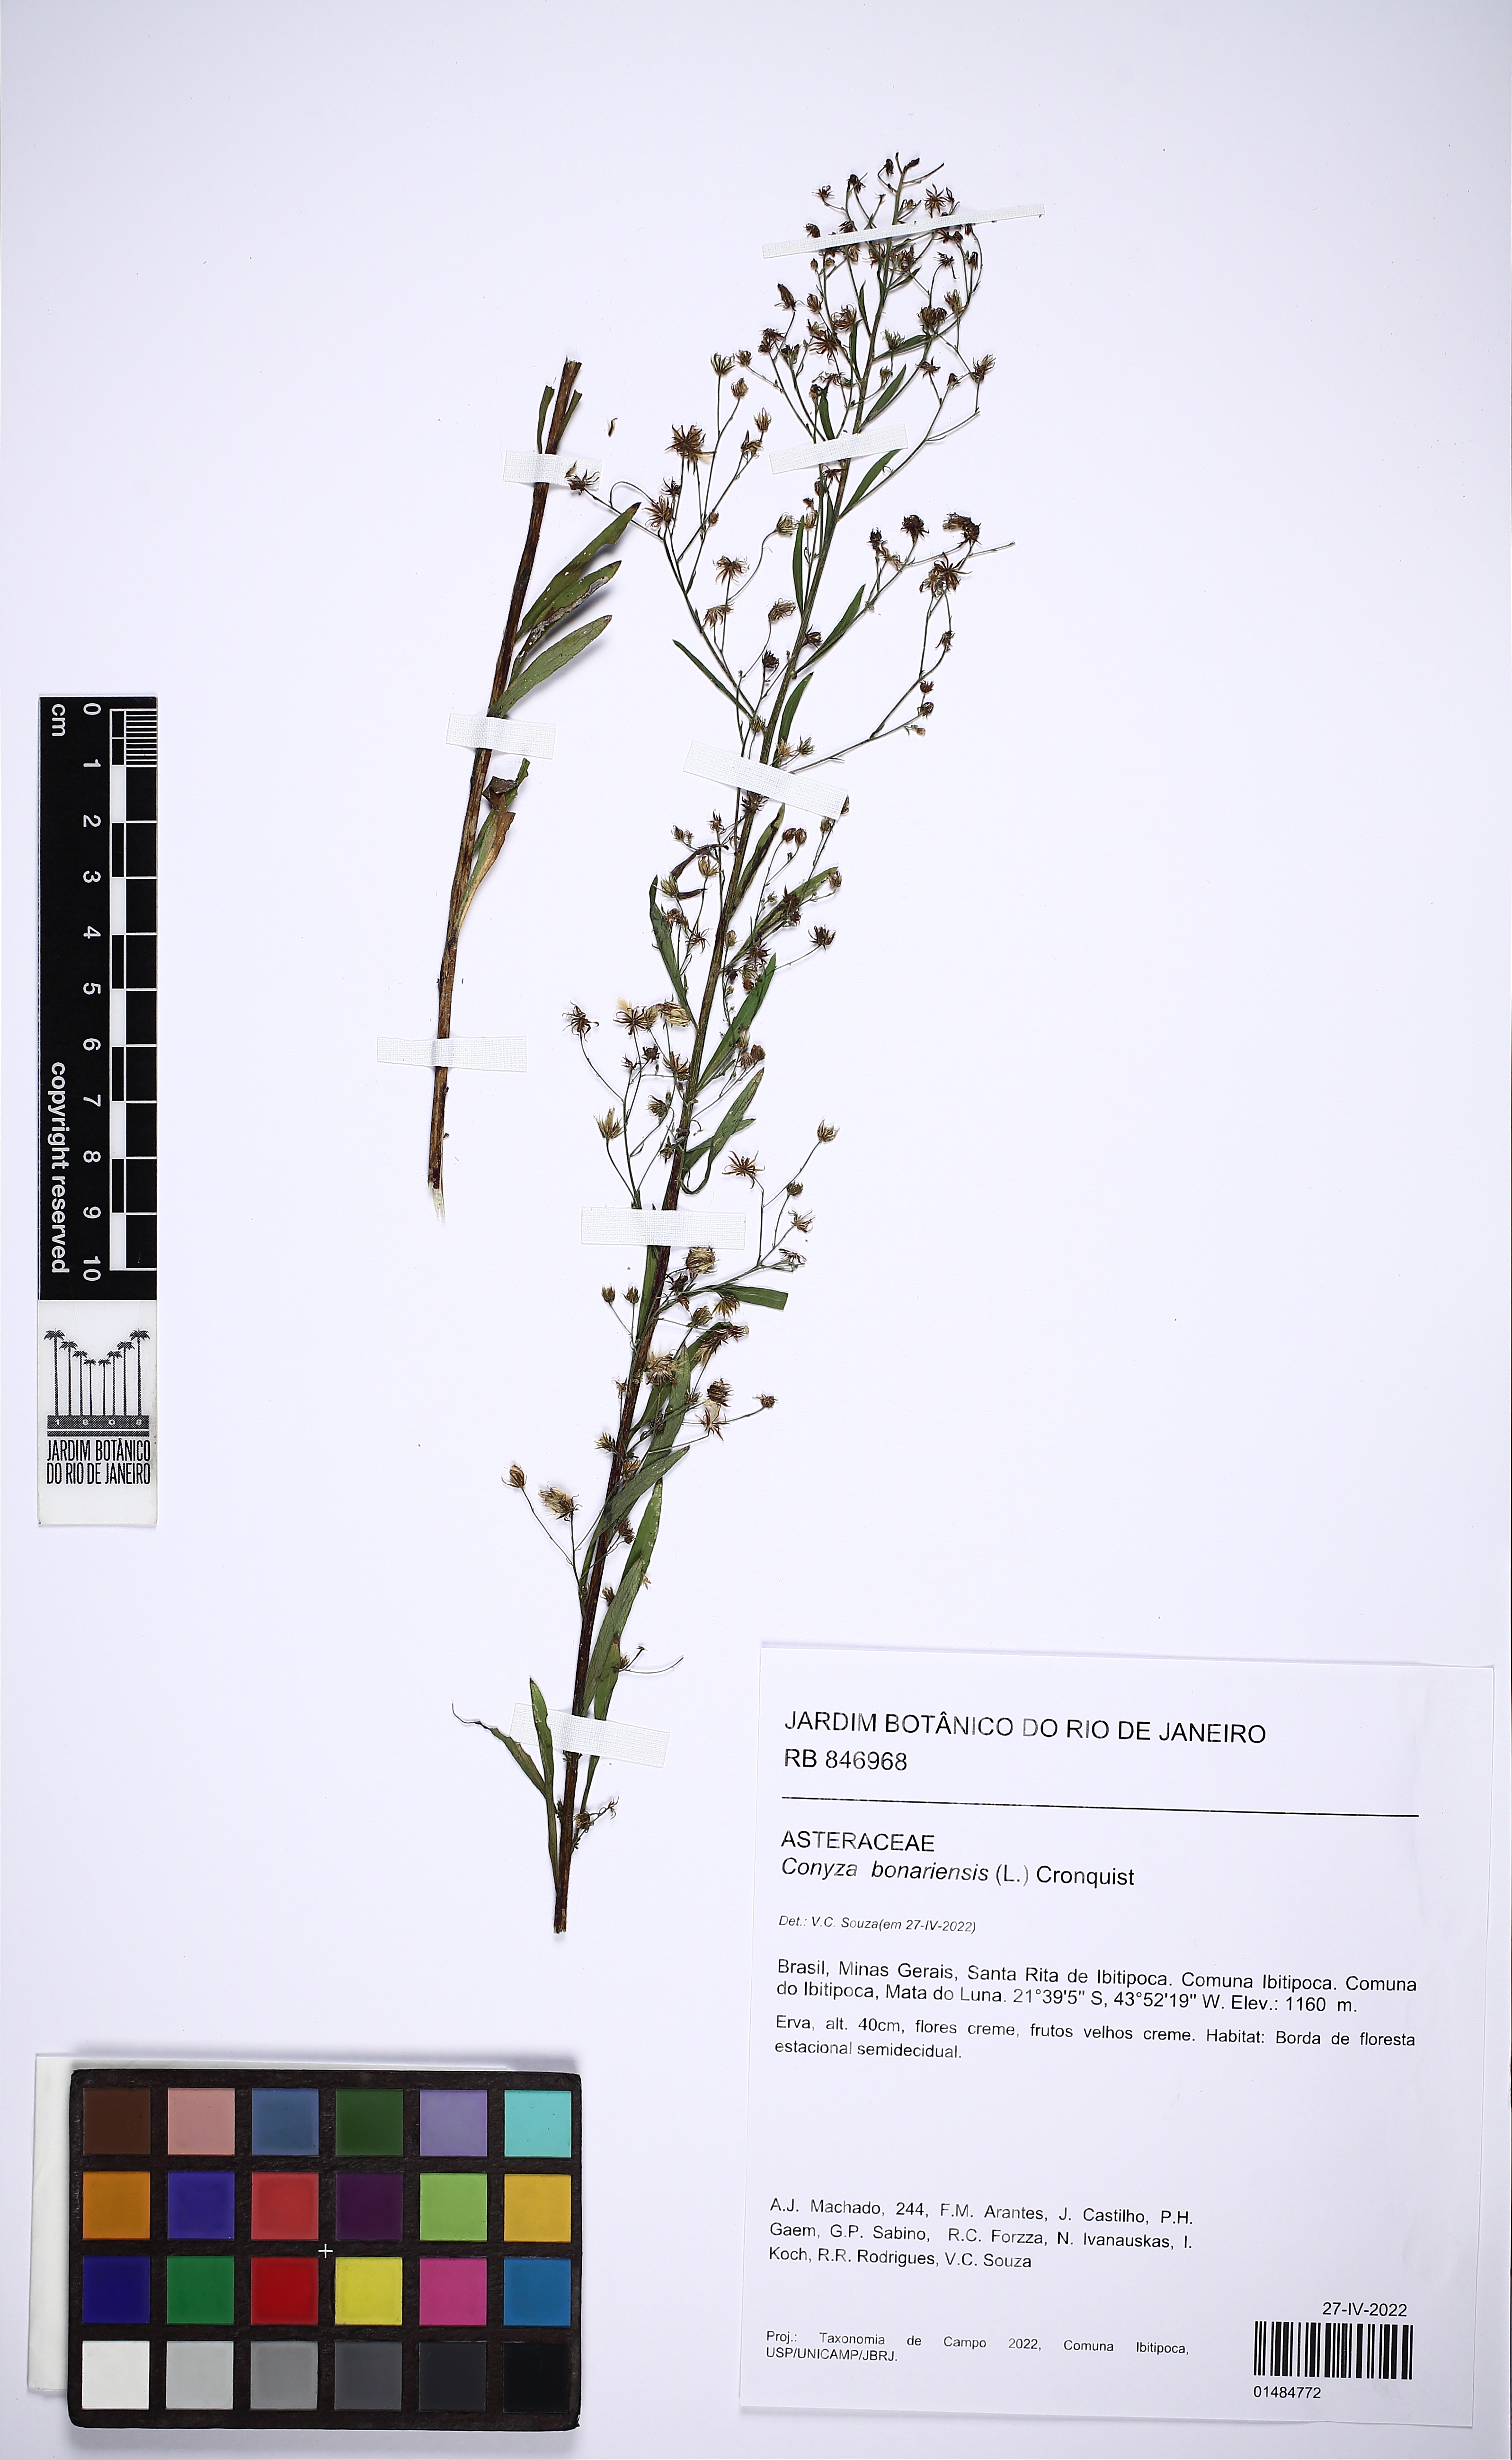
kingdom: Plantae
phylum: Tracheophyta
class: Magnoliopsida
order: Asterales
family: Asteraceae
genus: Erigeron
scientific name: Erigeron bonariensis
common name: Argentine fleabane
